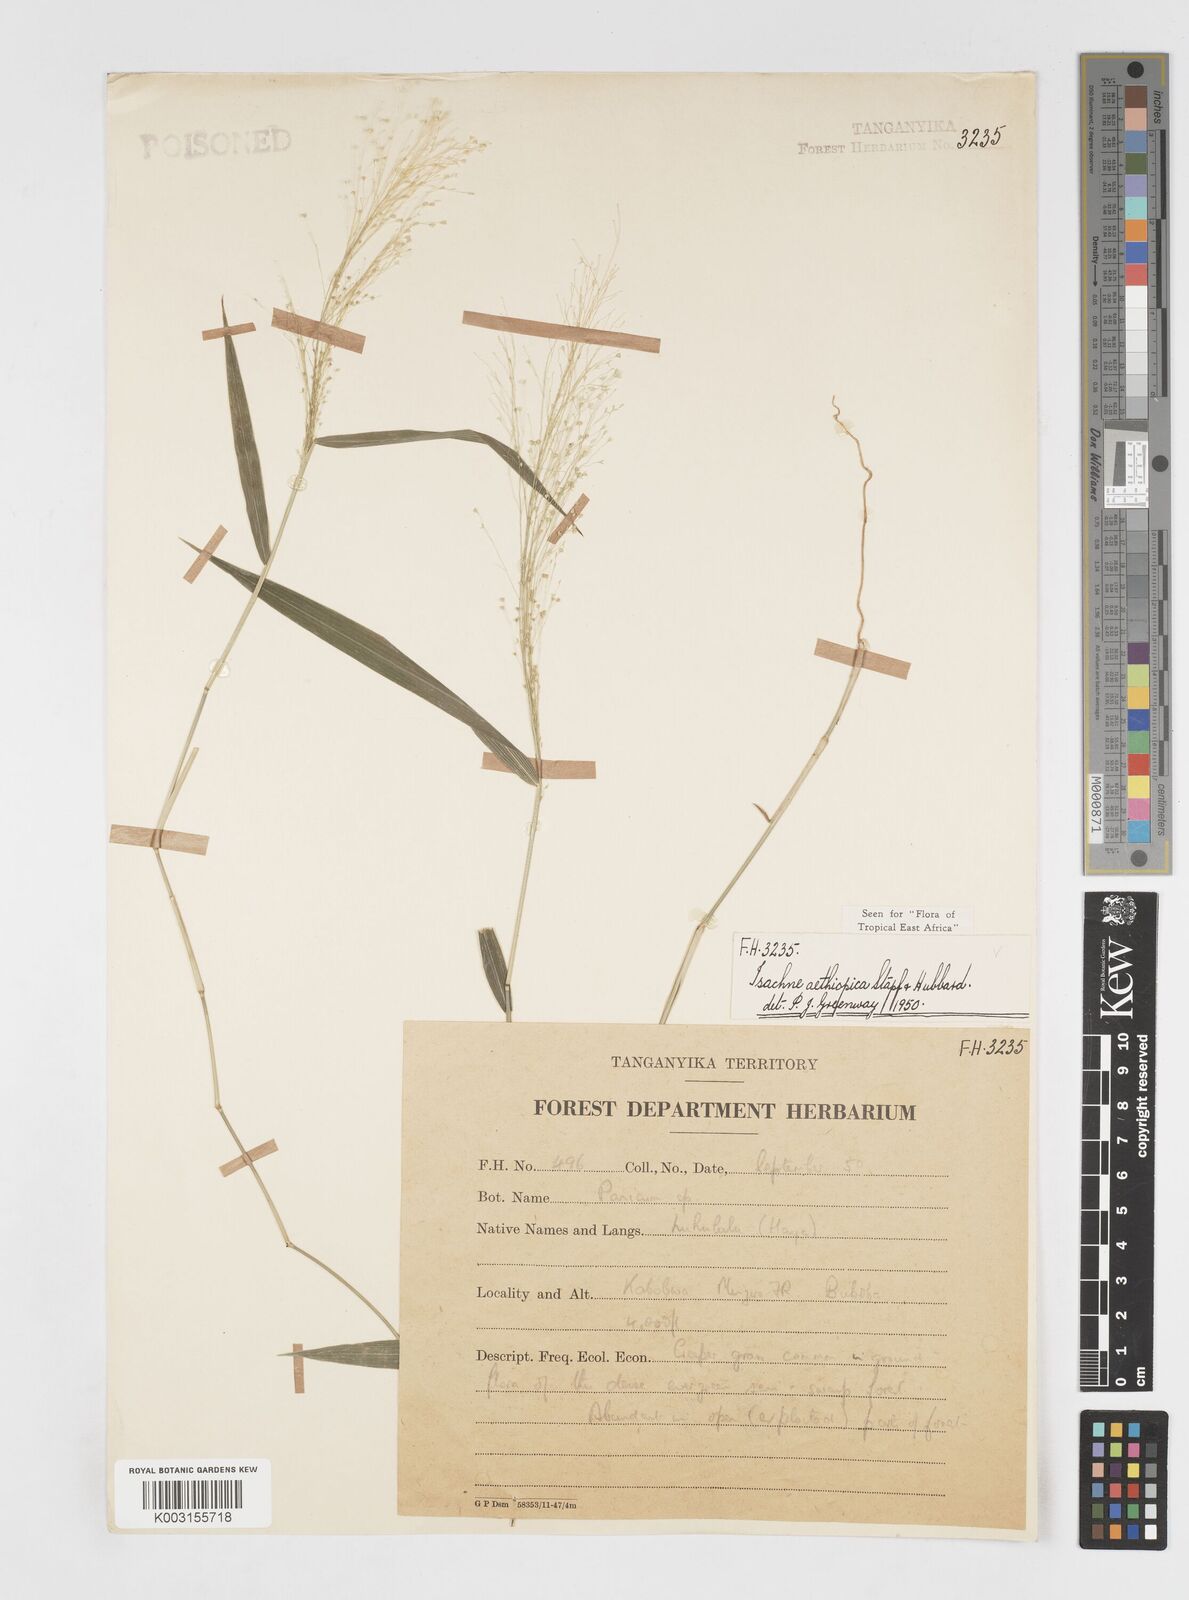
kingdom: Plantae
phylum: Tracheophyta
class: Liliopsida
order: Poales
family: Poaceae
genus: Isachne
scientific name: Isachne mauritiana
